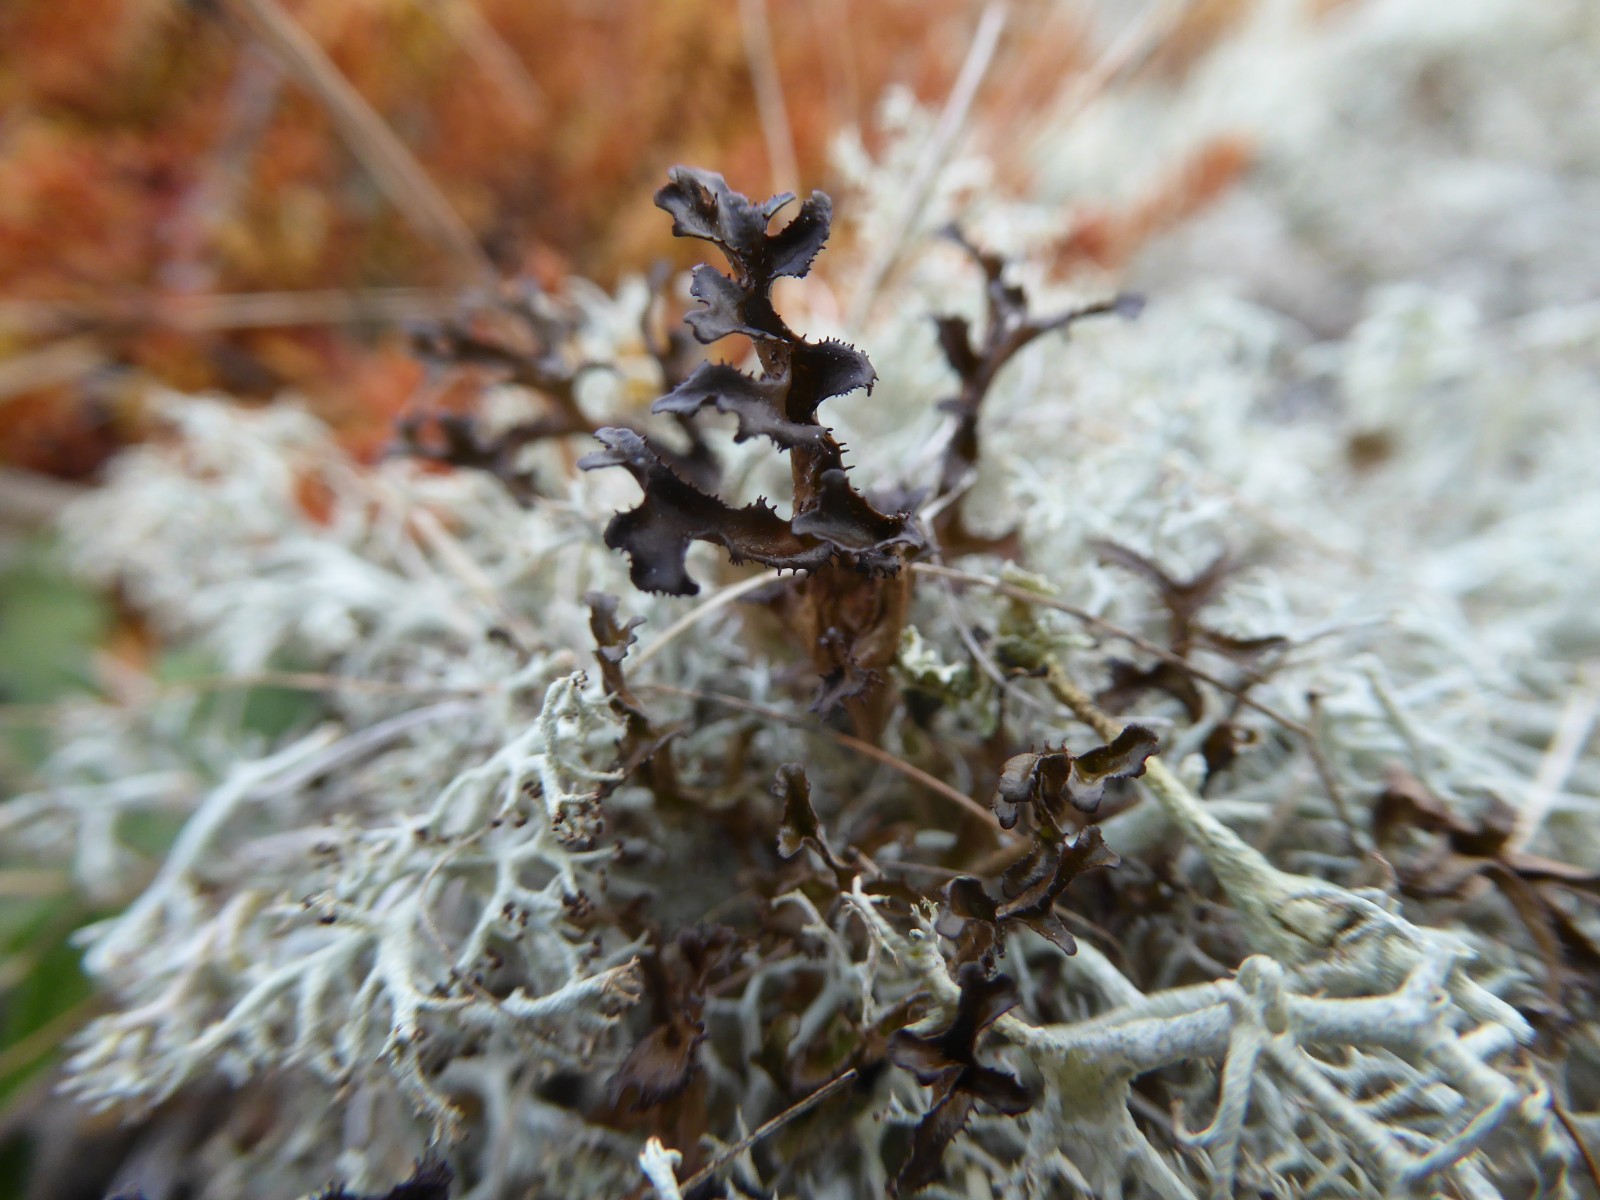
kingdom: Fungi
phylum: Ascomycota
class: Lecanoromycetes
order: Lecanorales
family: Parmeliaceae
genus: Cetraria
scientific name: Cetraria islandica
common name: islandsk kruslav
